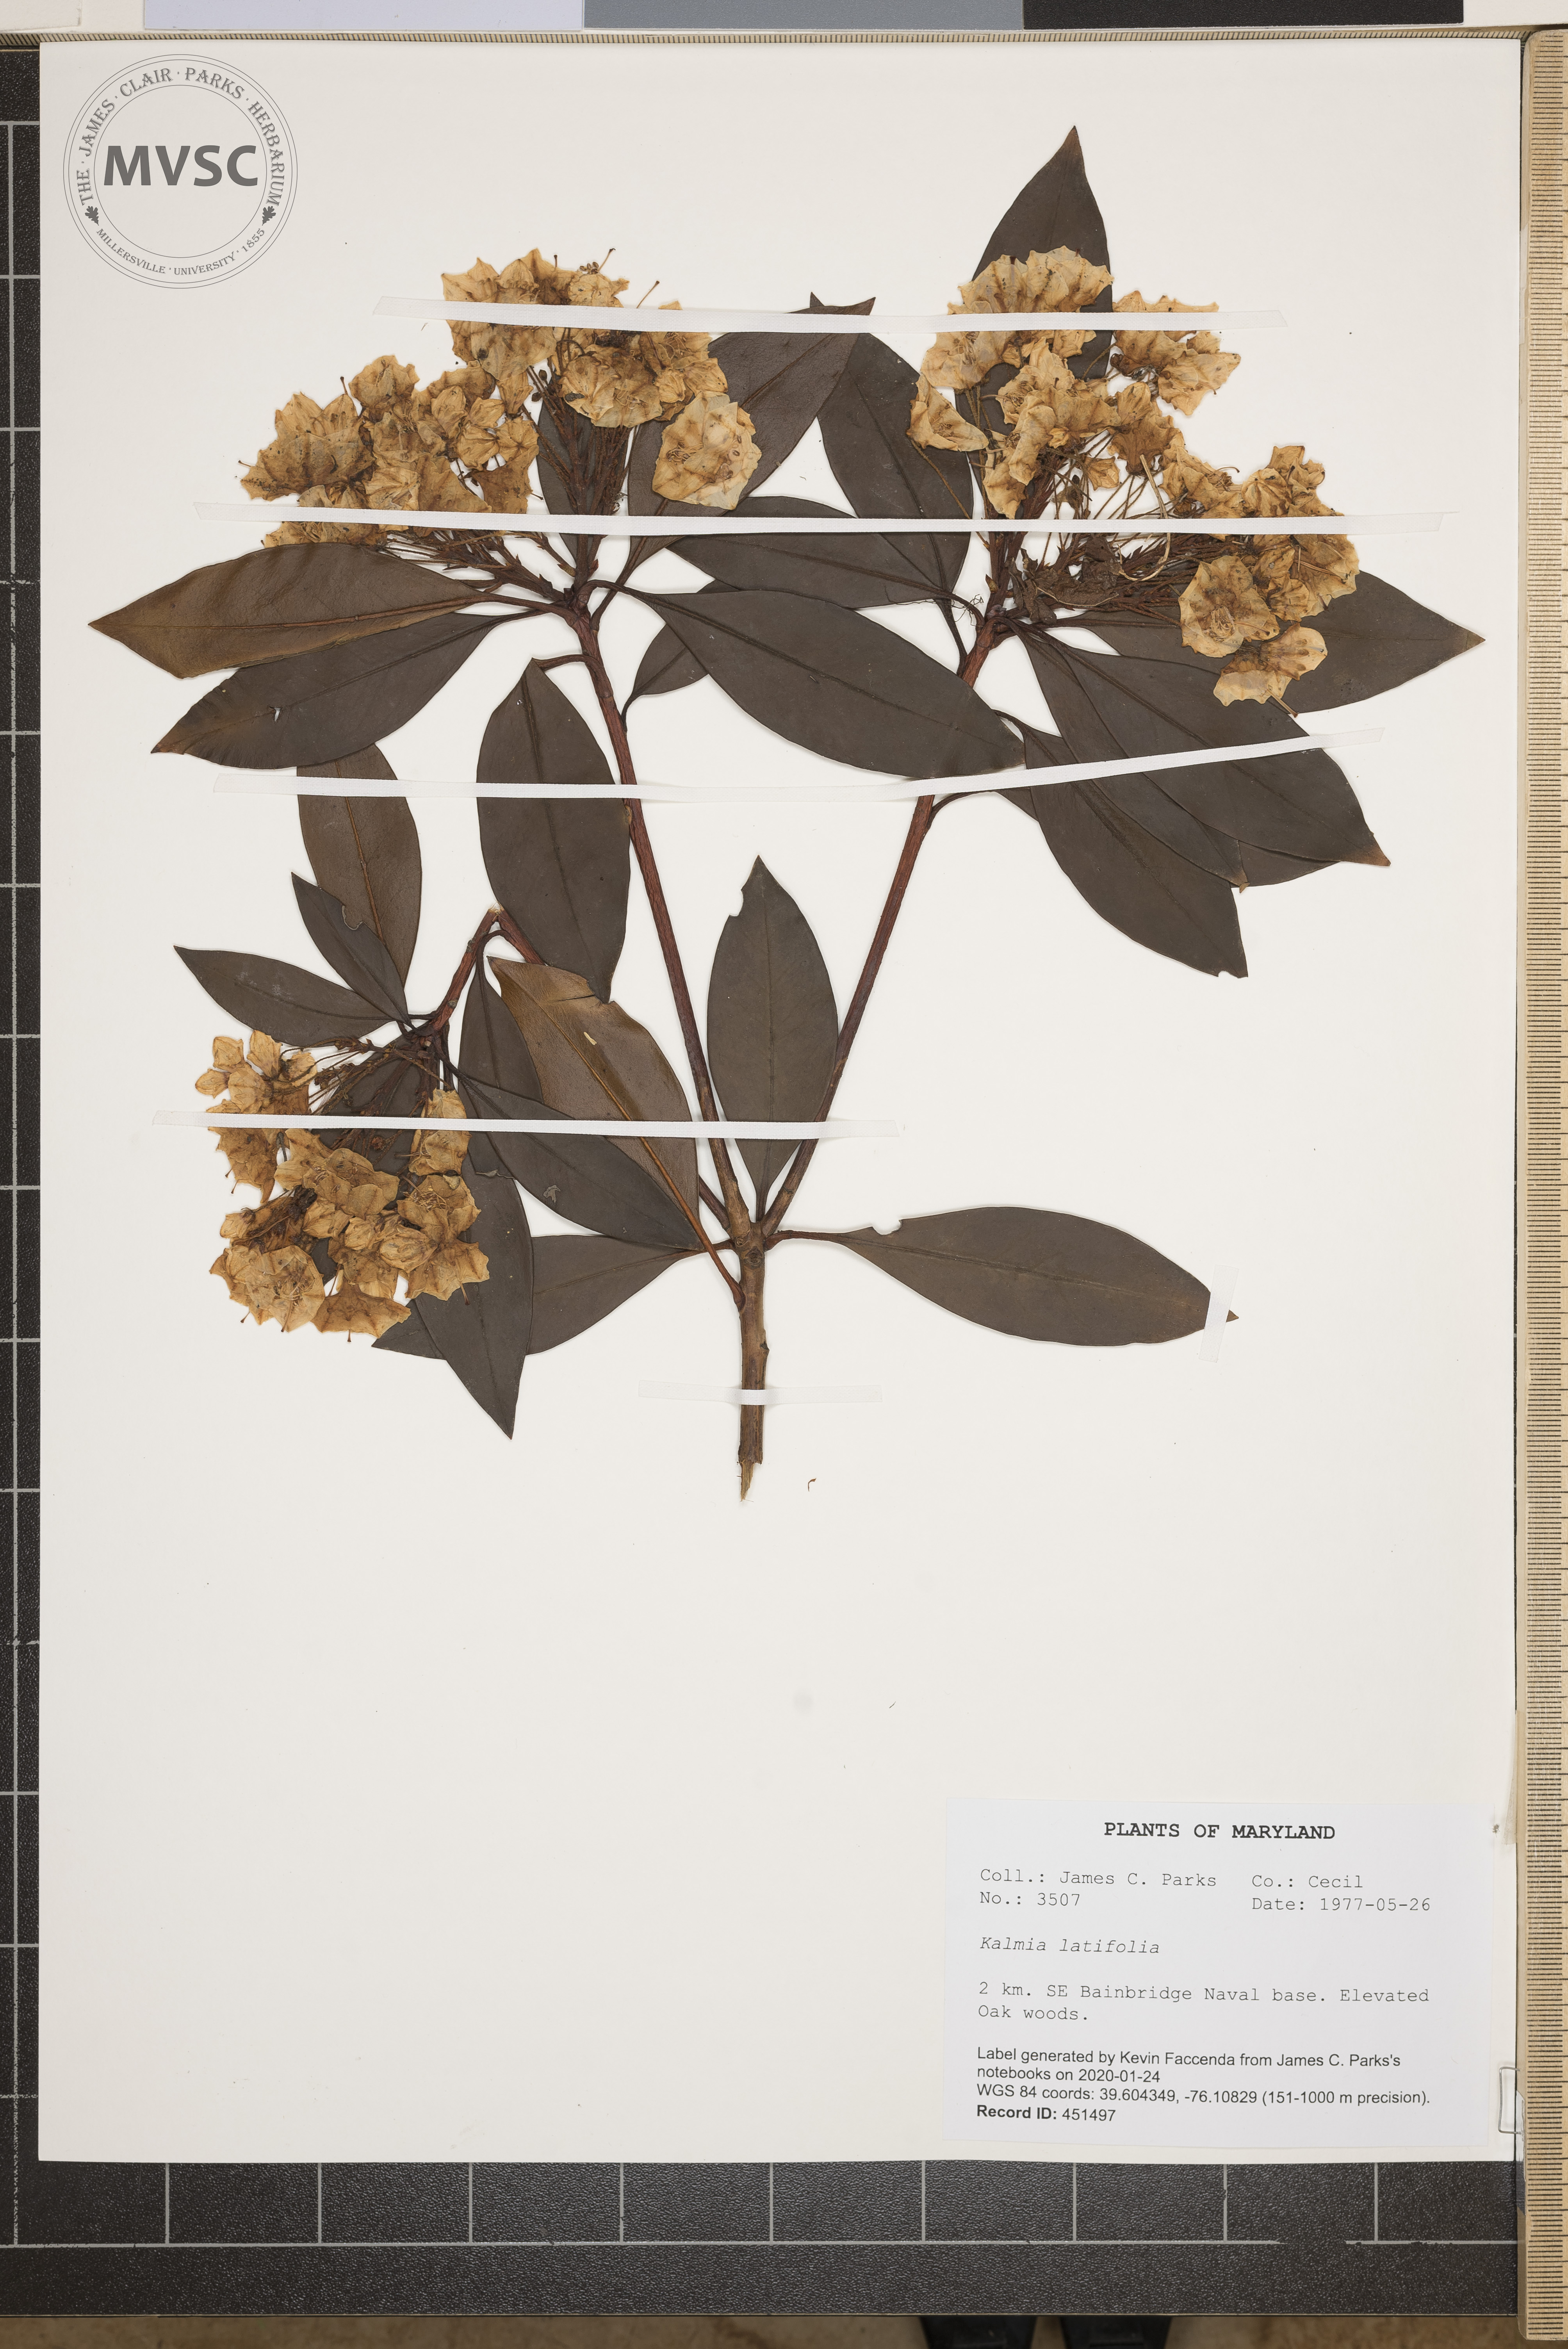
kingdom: Plantae
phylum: Tracheophyta
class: Magnoliopsida
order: Ericales
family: Ericaceae
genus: Kalmia
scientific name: Kalmia latifolia
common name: Mountain-laurel
